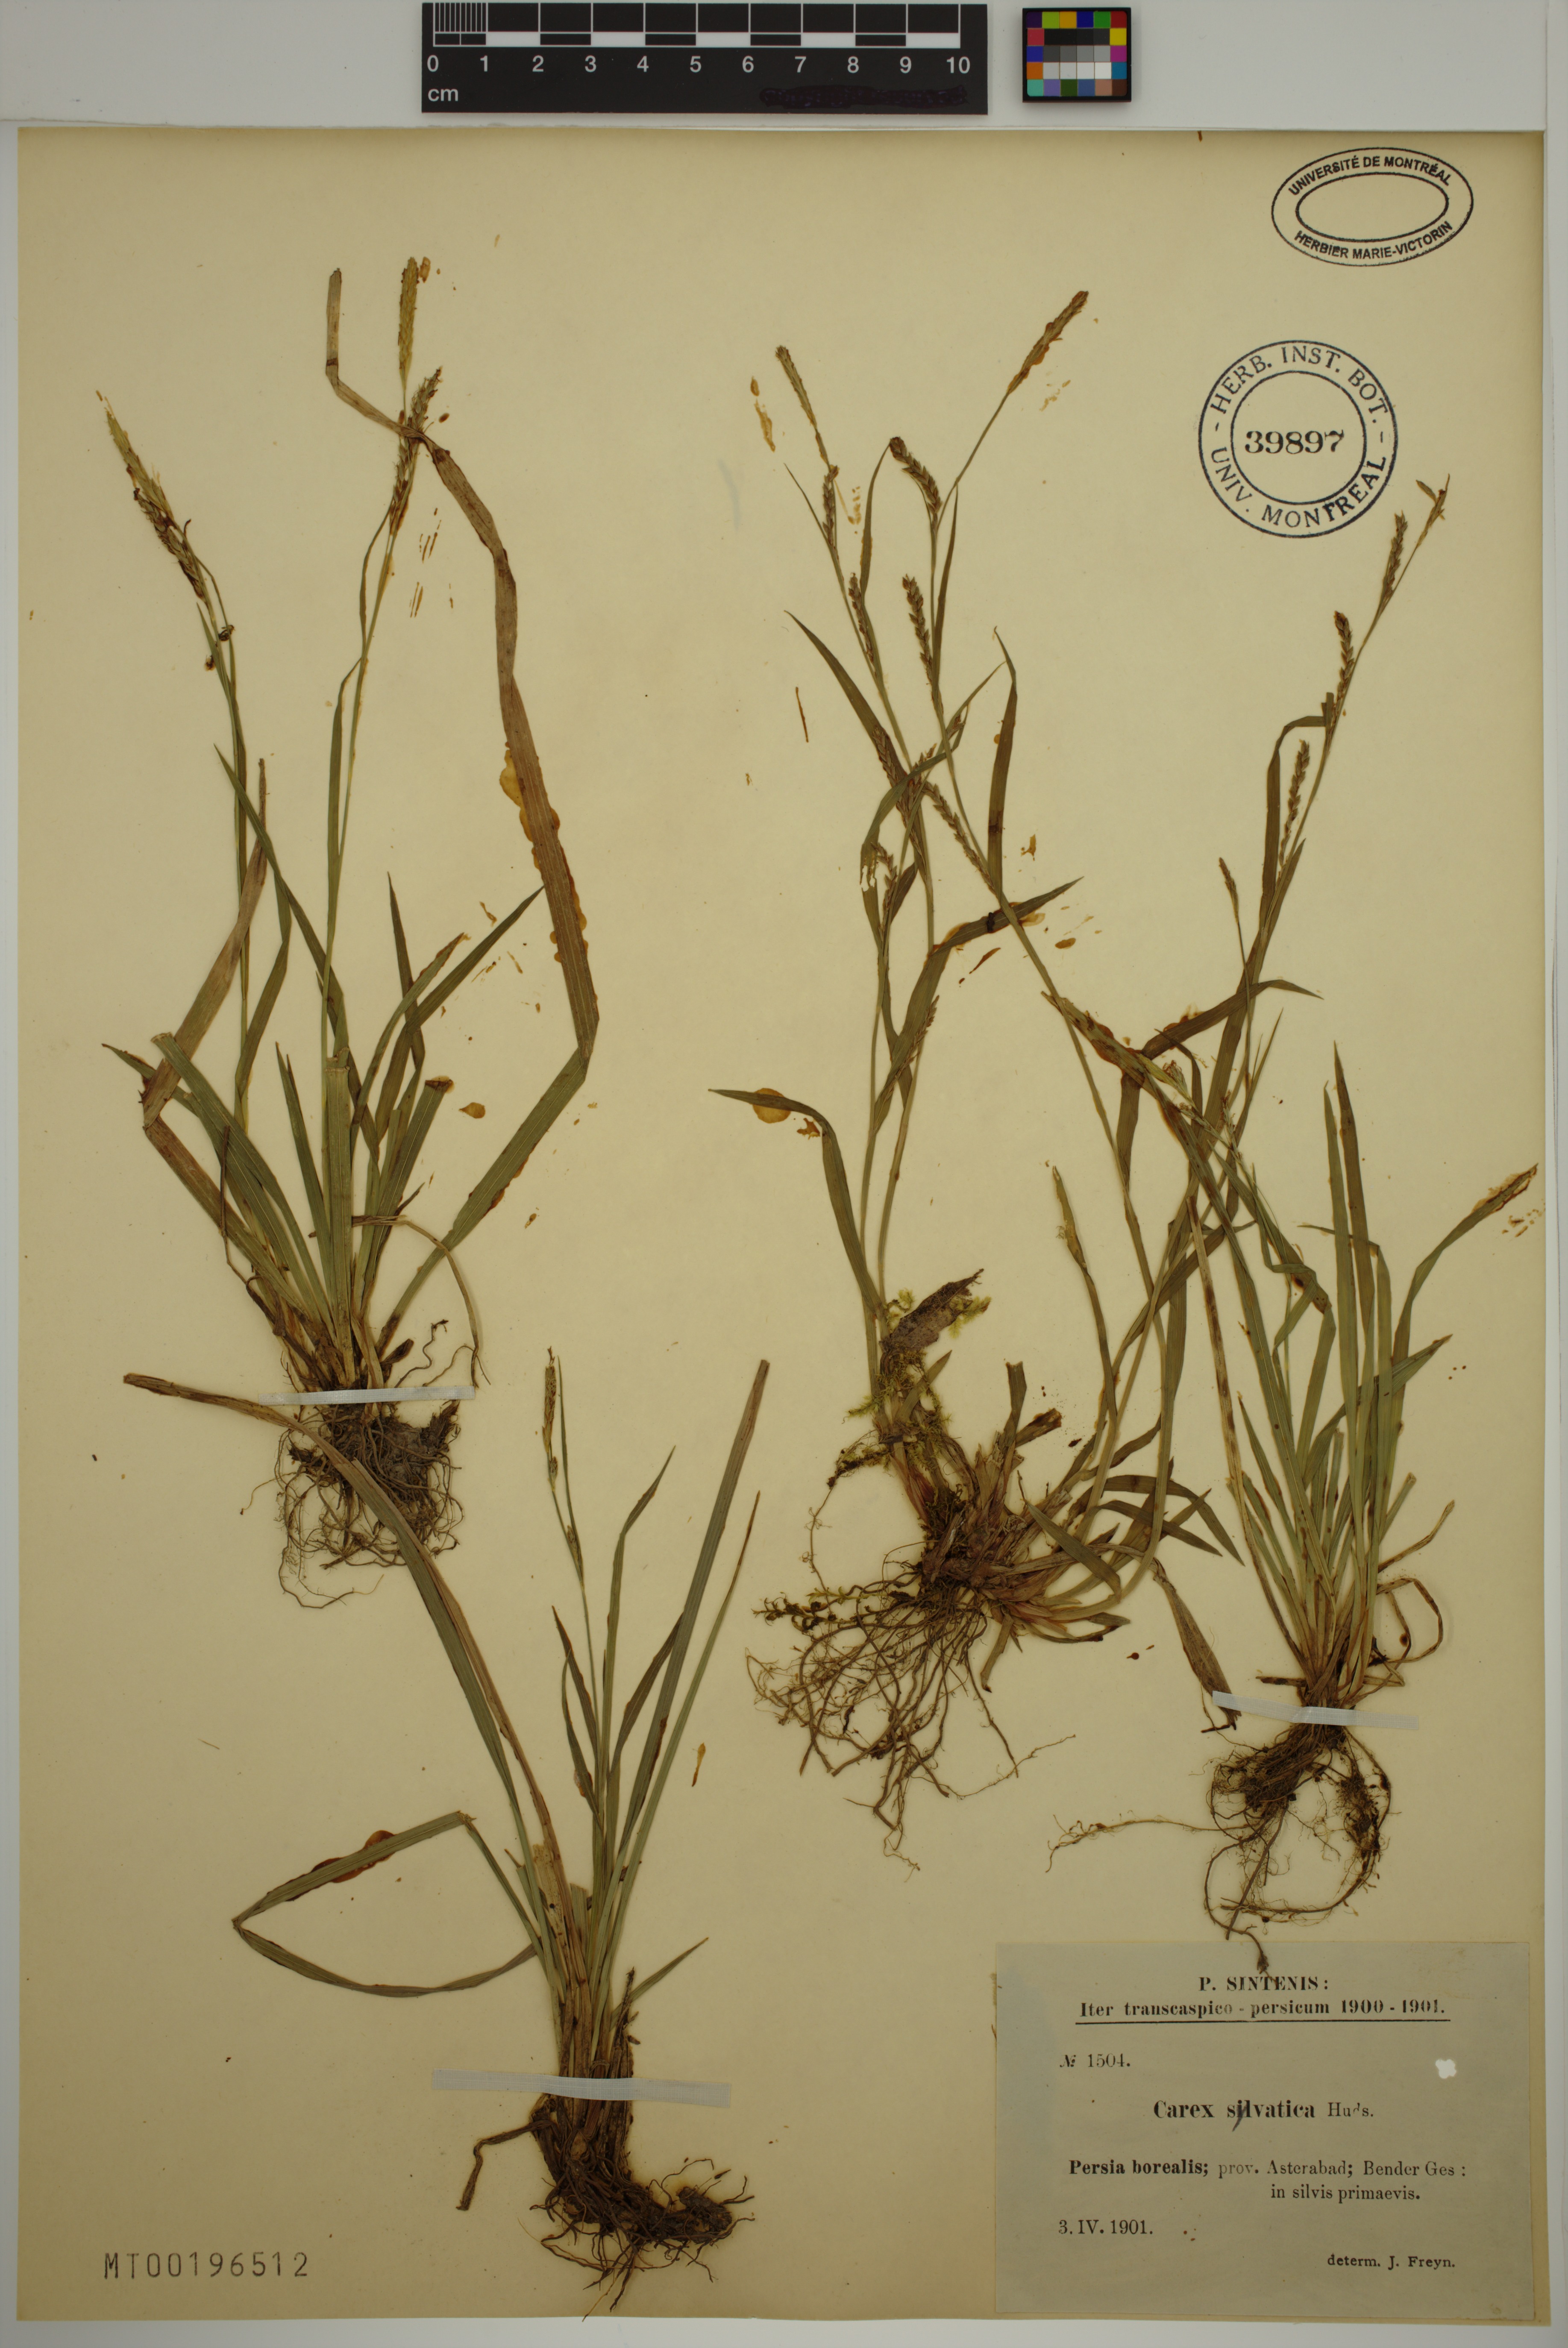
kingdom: Plantae
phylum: Tracheophyta
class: Liliopsida
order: Poales
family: Cyperaceae
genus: Carex
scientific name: Carex sylvatica
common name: Wood-sedge
